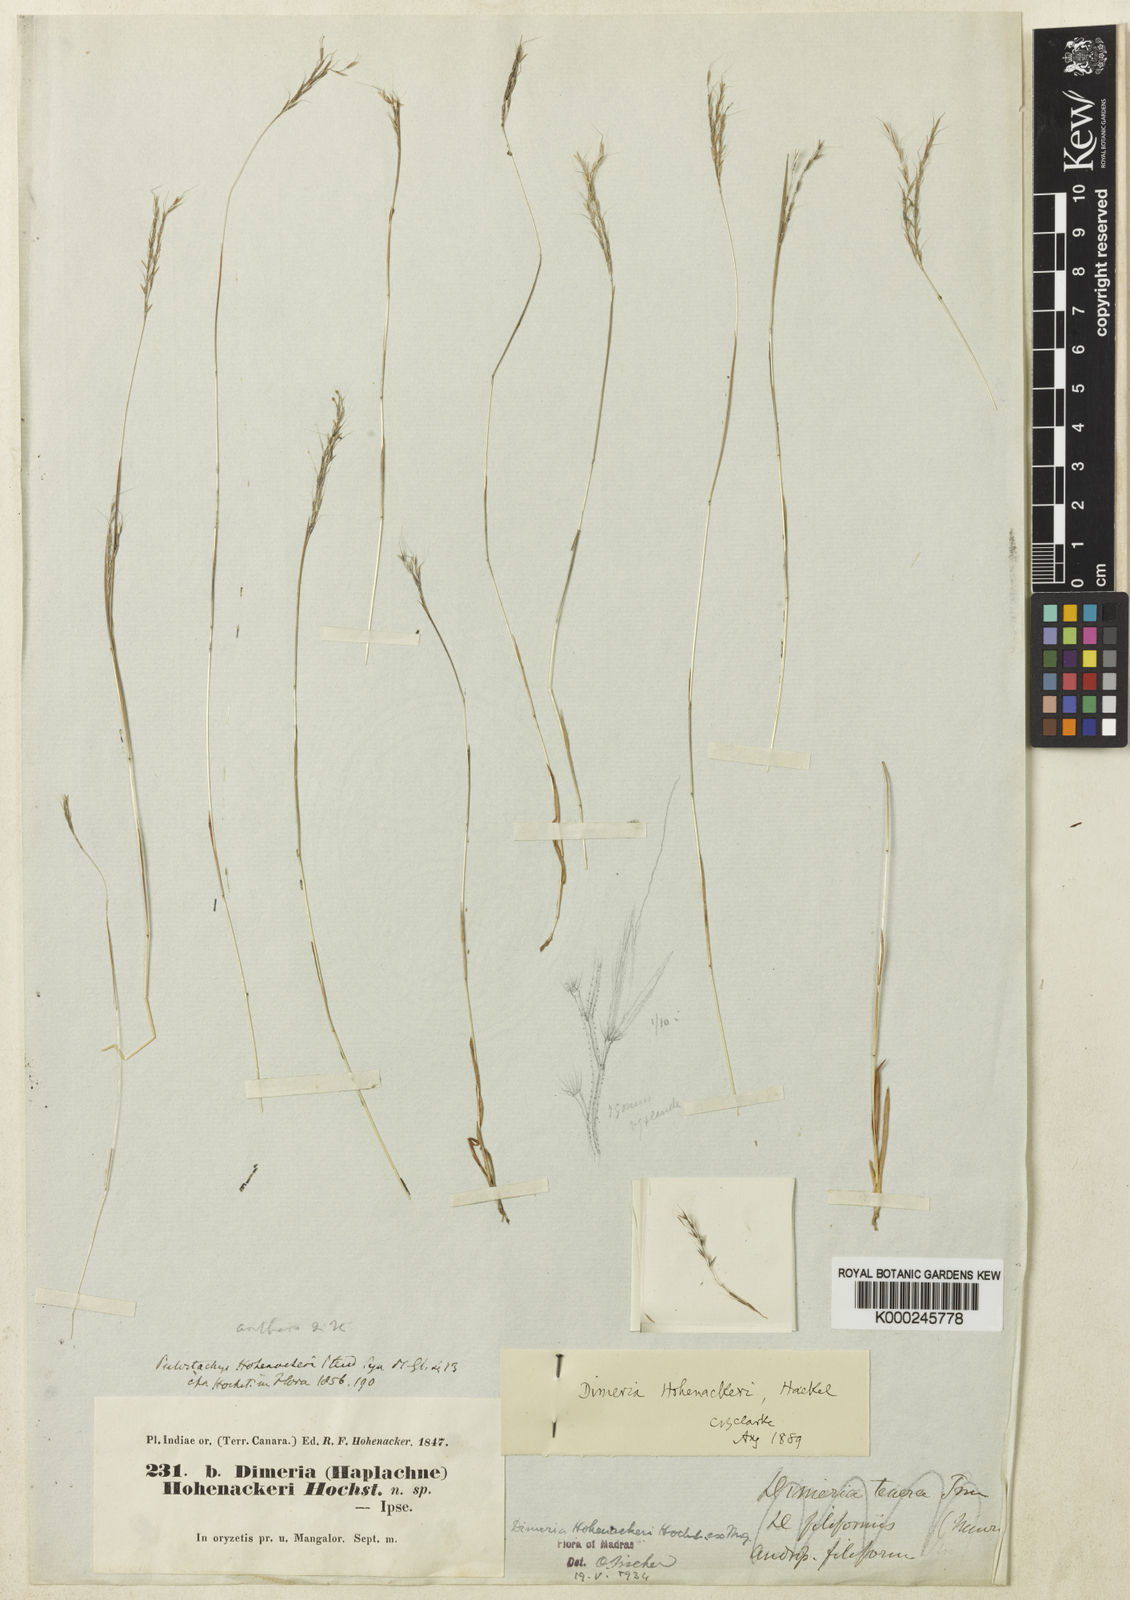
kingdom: Plantae
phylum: Tracheophyta
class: Liliopsida
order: Poales
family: Poaceae
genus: Dimeria
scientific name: Dimeria hohenackeri
